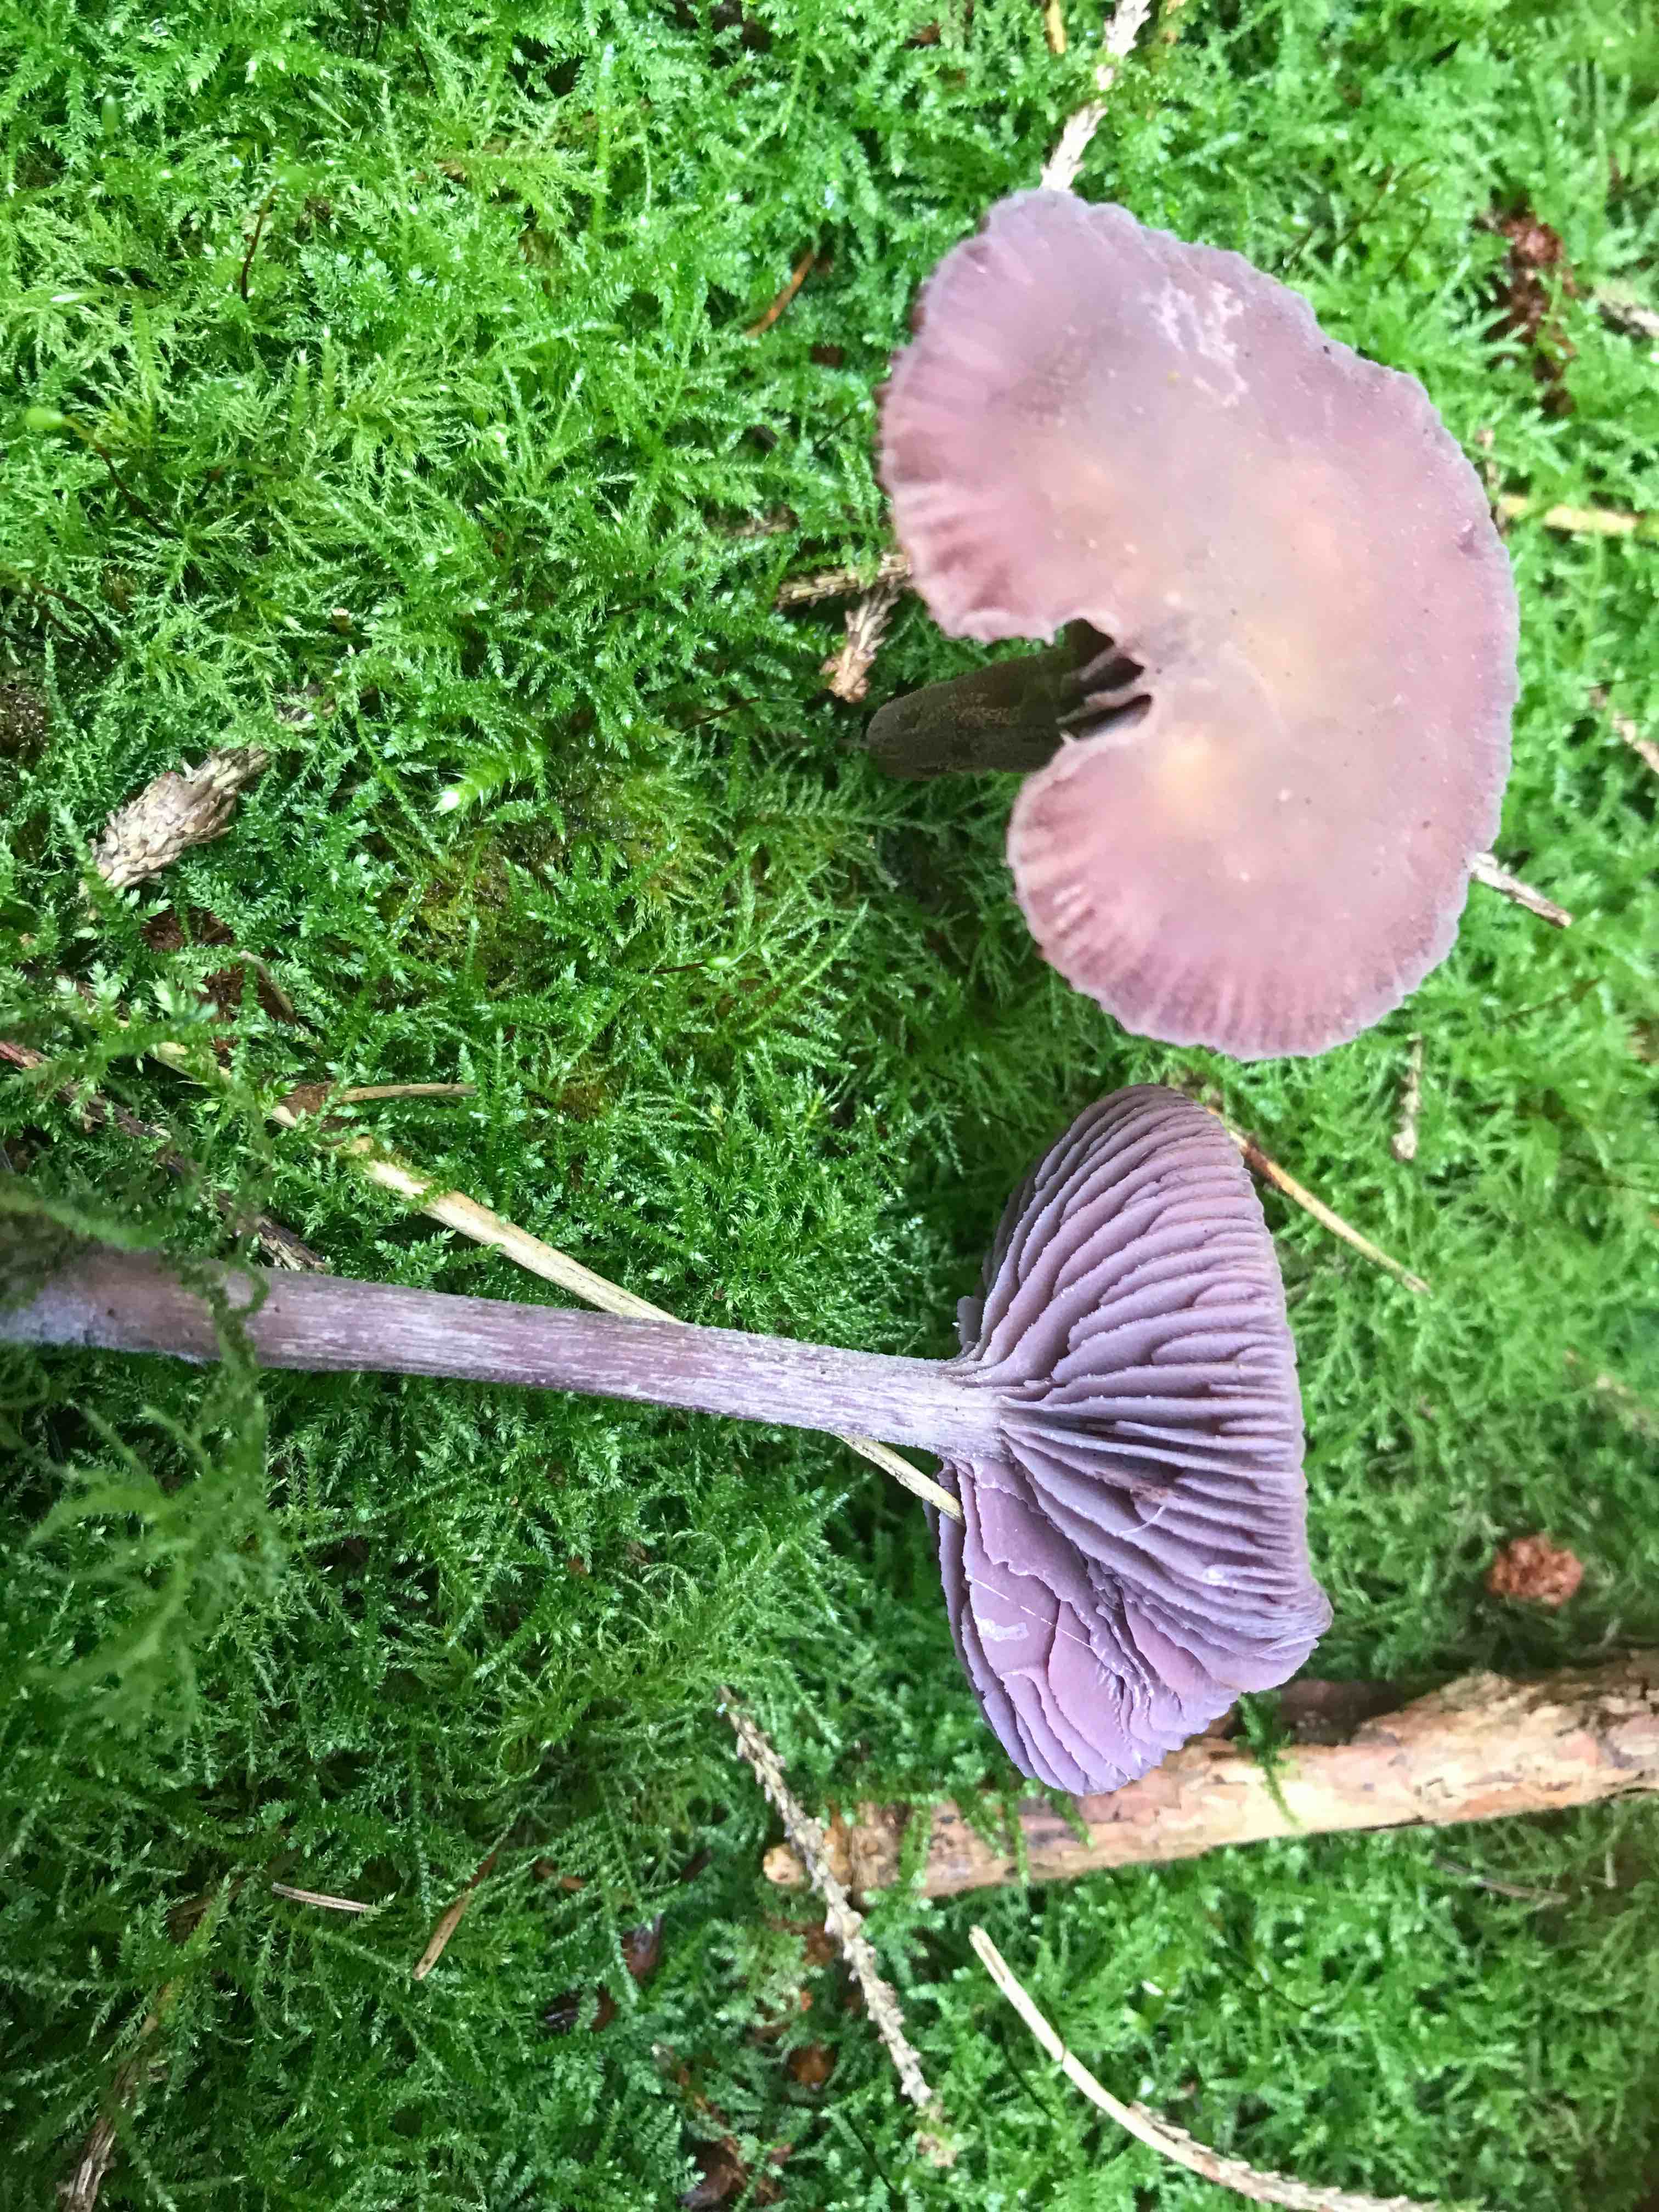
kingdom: Fungi
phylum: Basidiomycota
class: Agaricomycetes
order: Agaricales
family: Hydnangiaceae
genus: Laccaria
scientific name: Laccaria amethystina
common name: violet ametysthat
